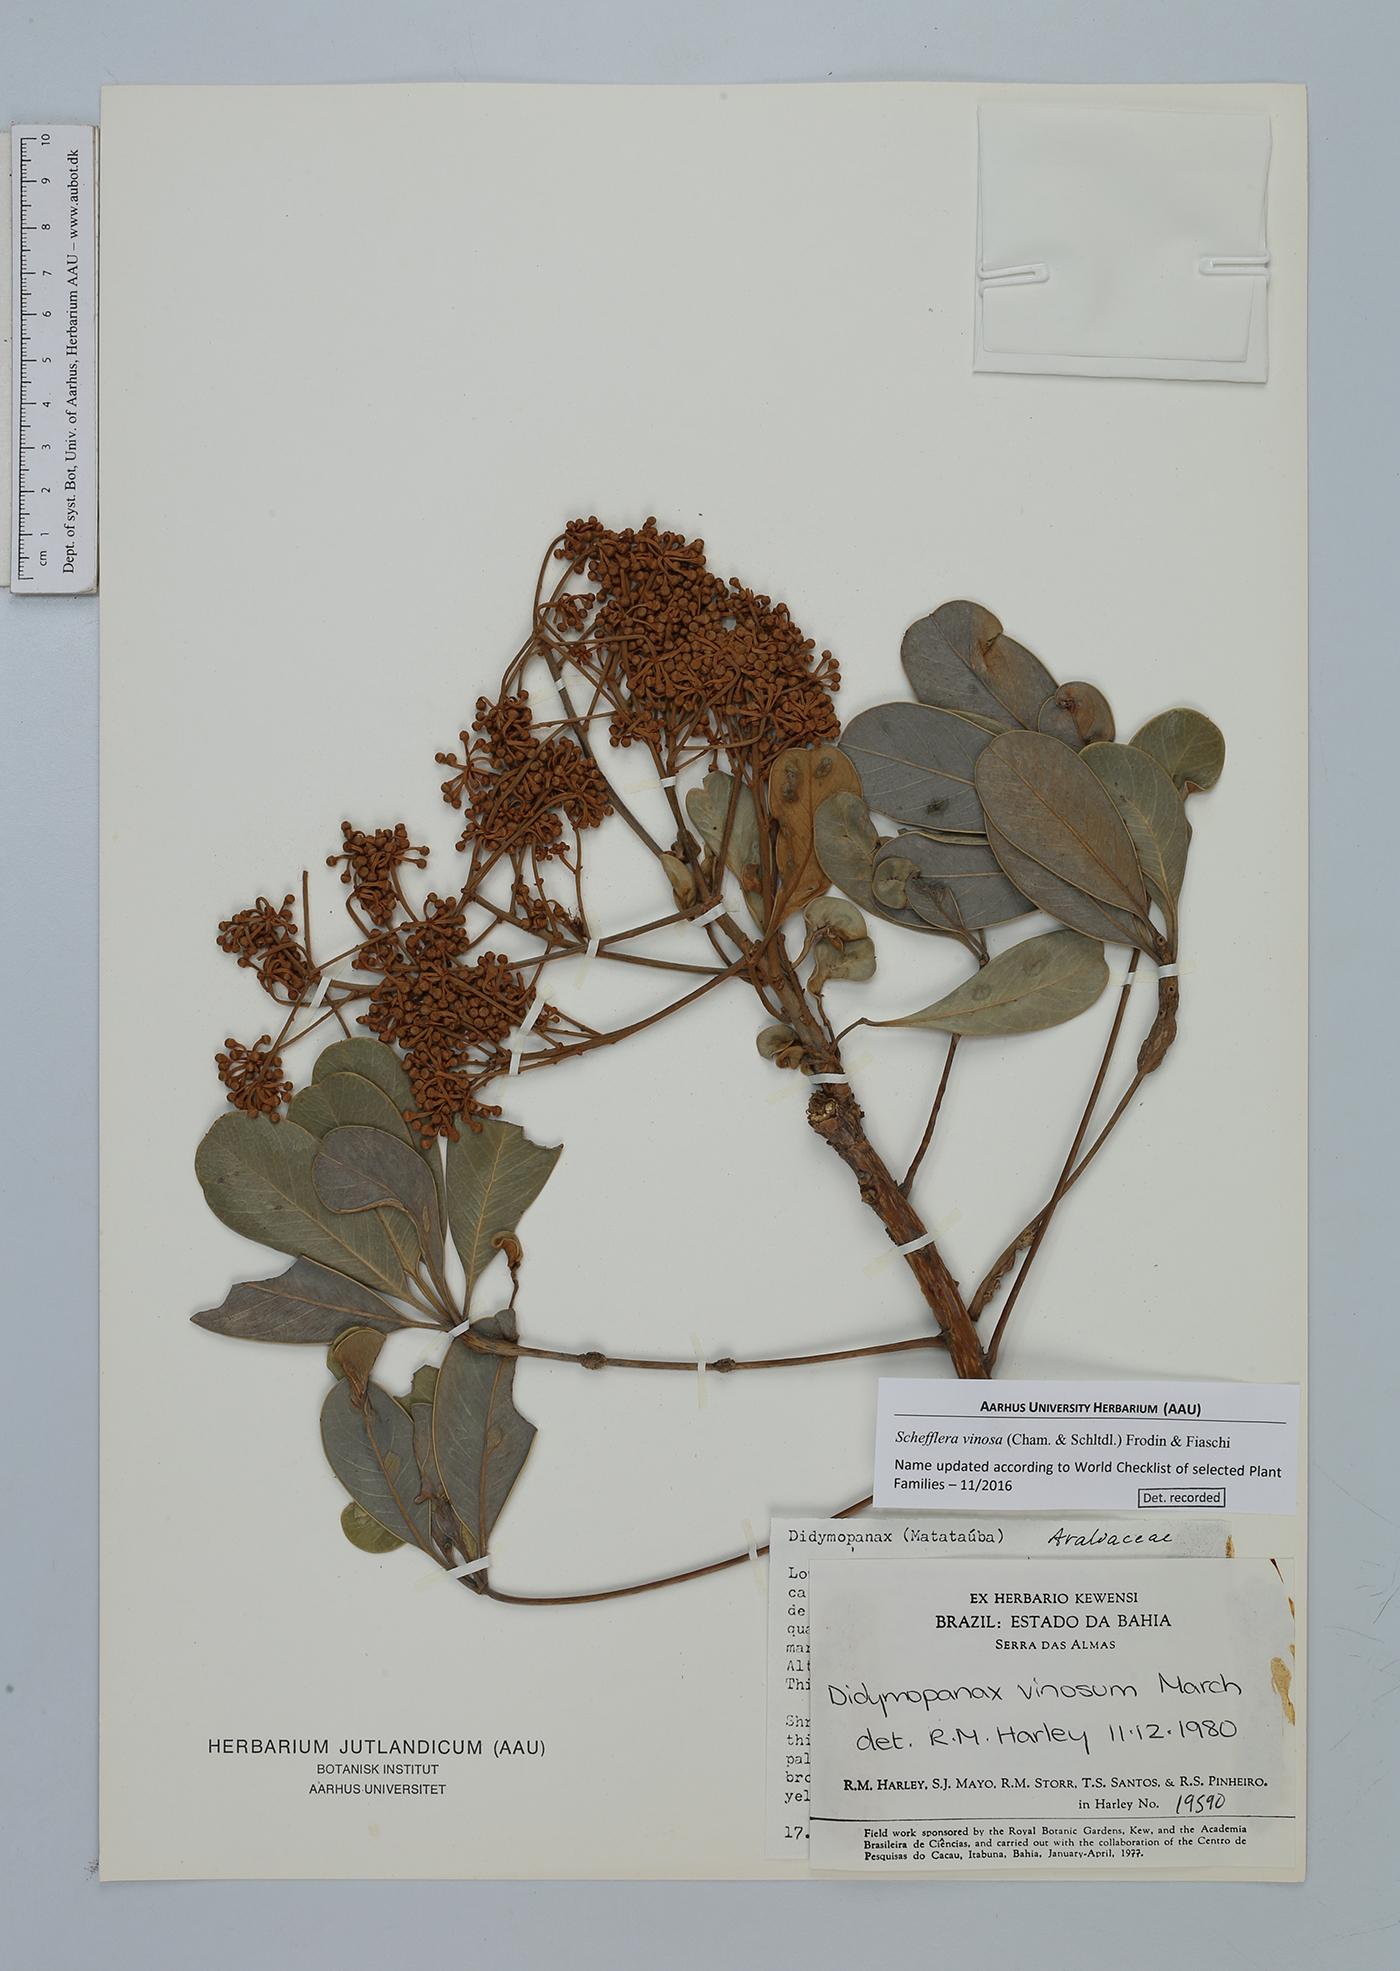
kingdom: Plantae
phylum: Tracheophyta
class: Magnoliopsida
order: Apiales
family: Araliaceae
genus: Didymopanax
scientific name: Didymopanax vinosus
